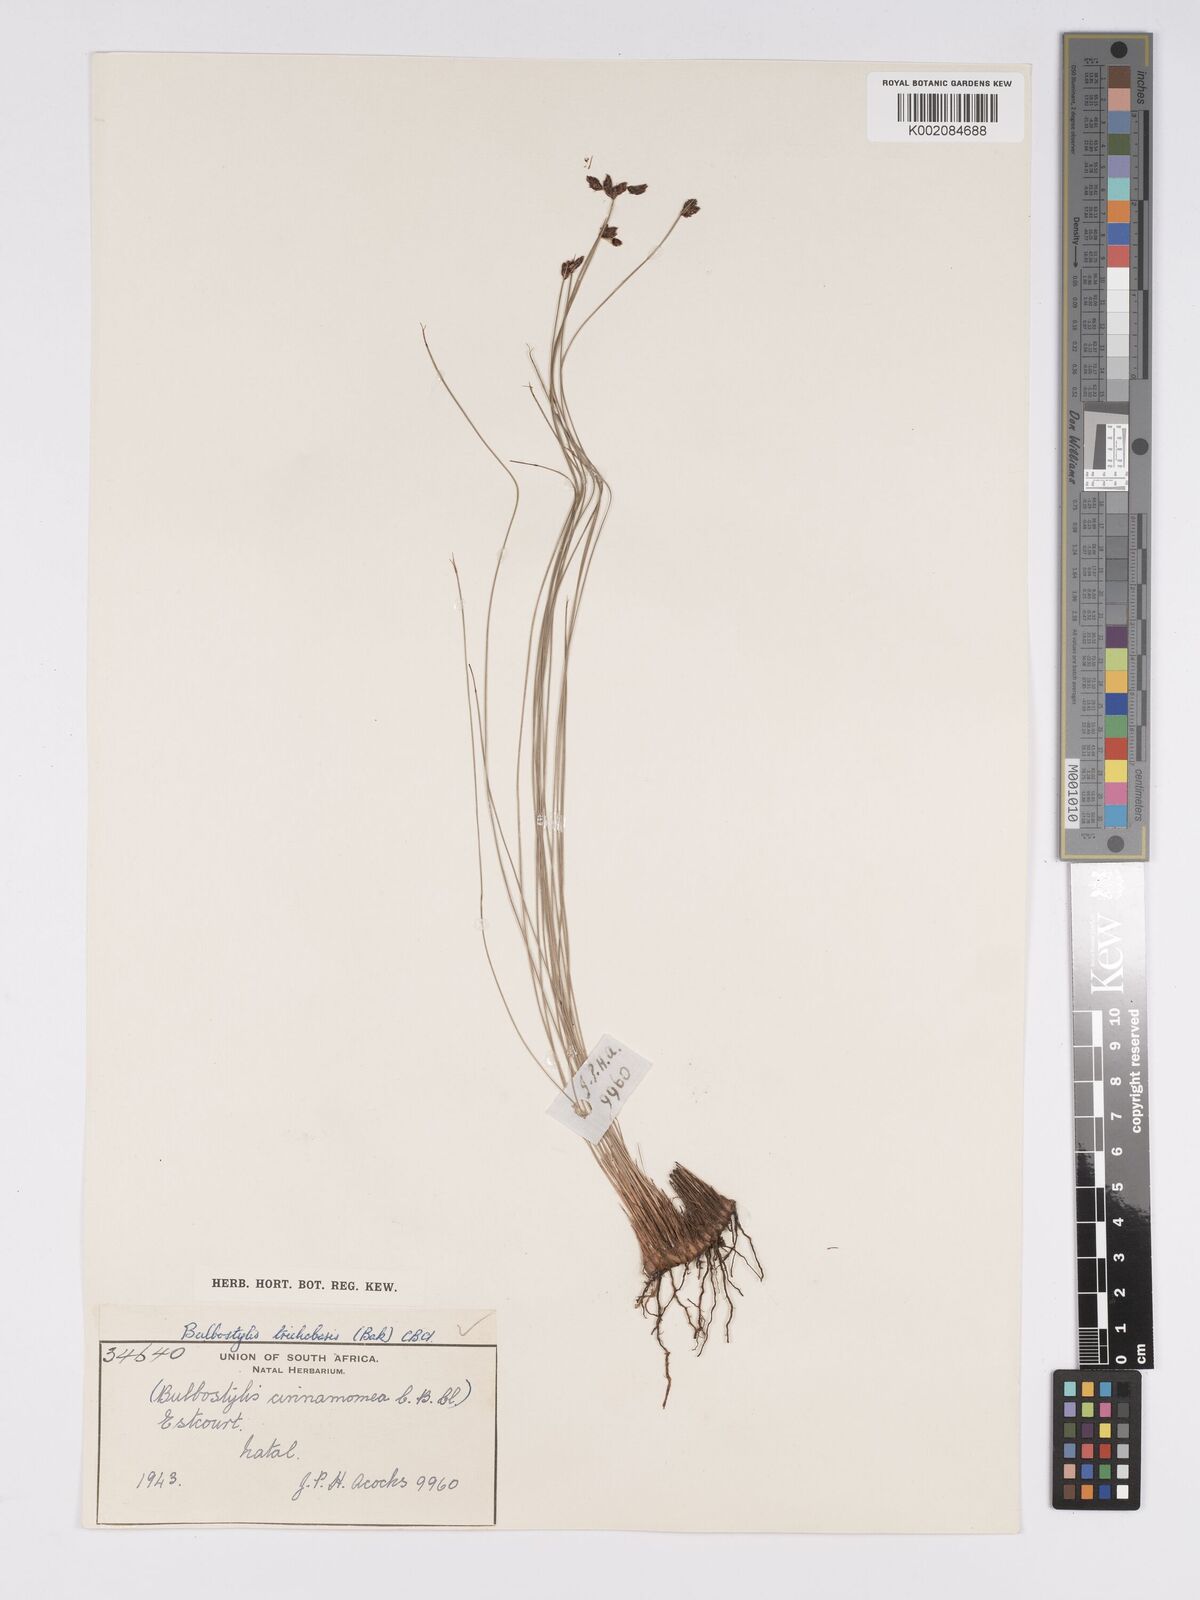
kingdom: Plantae
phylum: Tracheophyta
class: Liliopsida
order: Poales
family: Cyperaceae
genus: Bulbostylis
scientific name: Bulbostylis trichobasis
